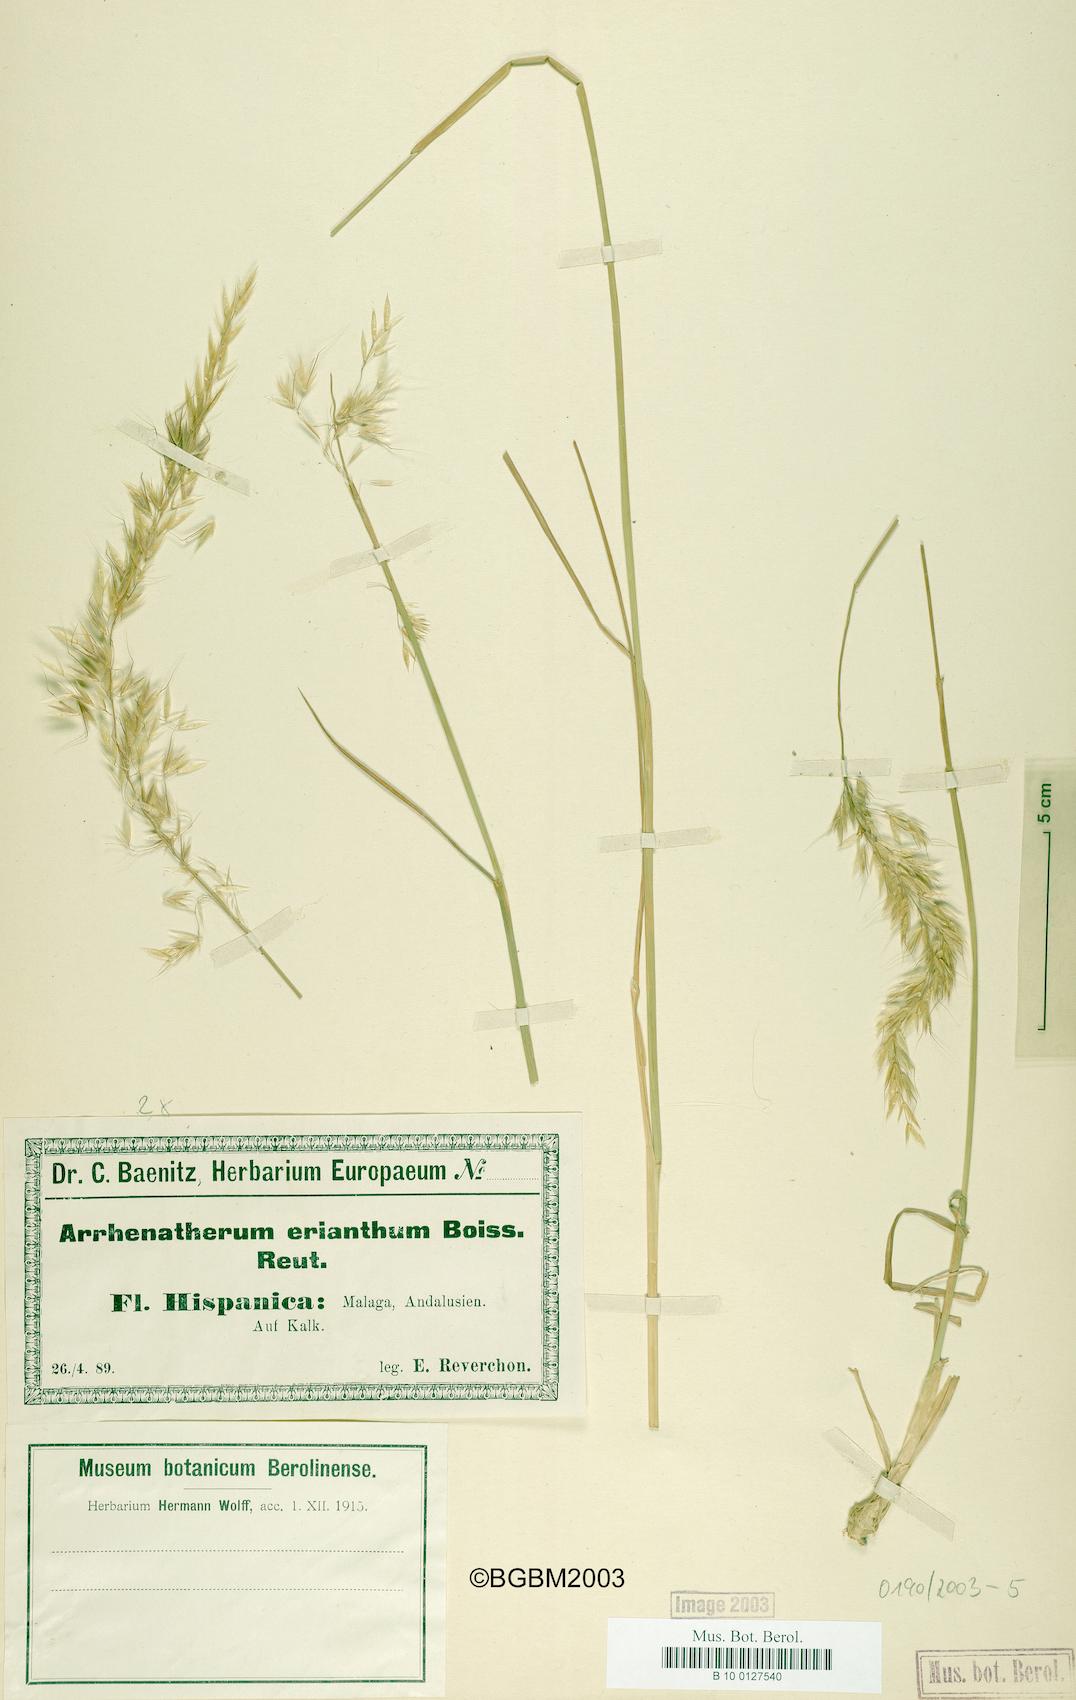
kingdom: Plantae
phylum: Tracheophyta
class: Liliopsida
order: Poales
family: Poaceae
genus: Arrhenatherum
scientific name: Arrhenatherum album
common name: Tall oat grass
